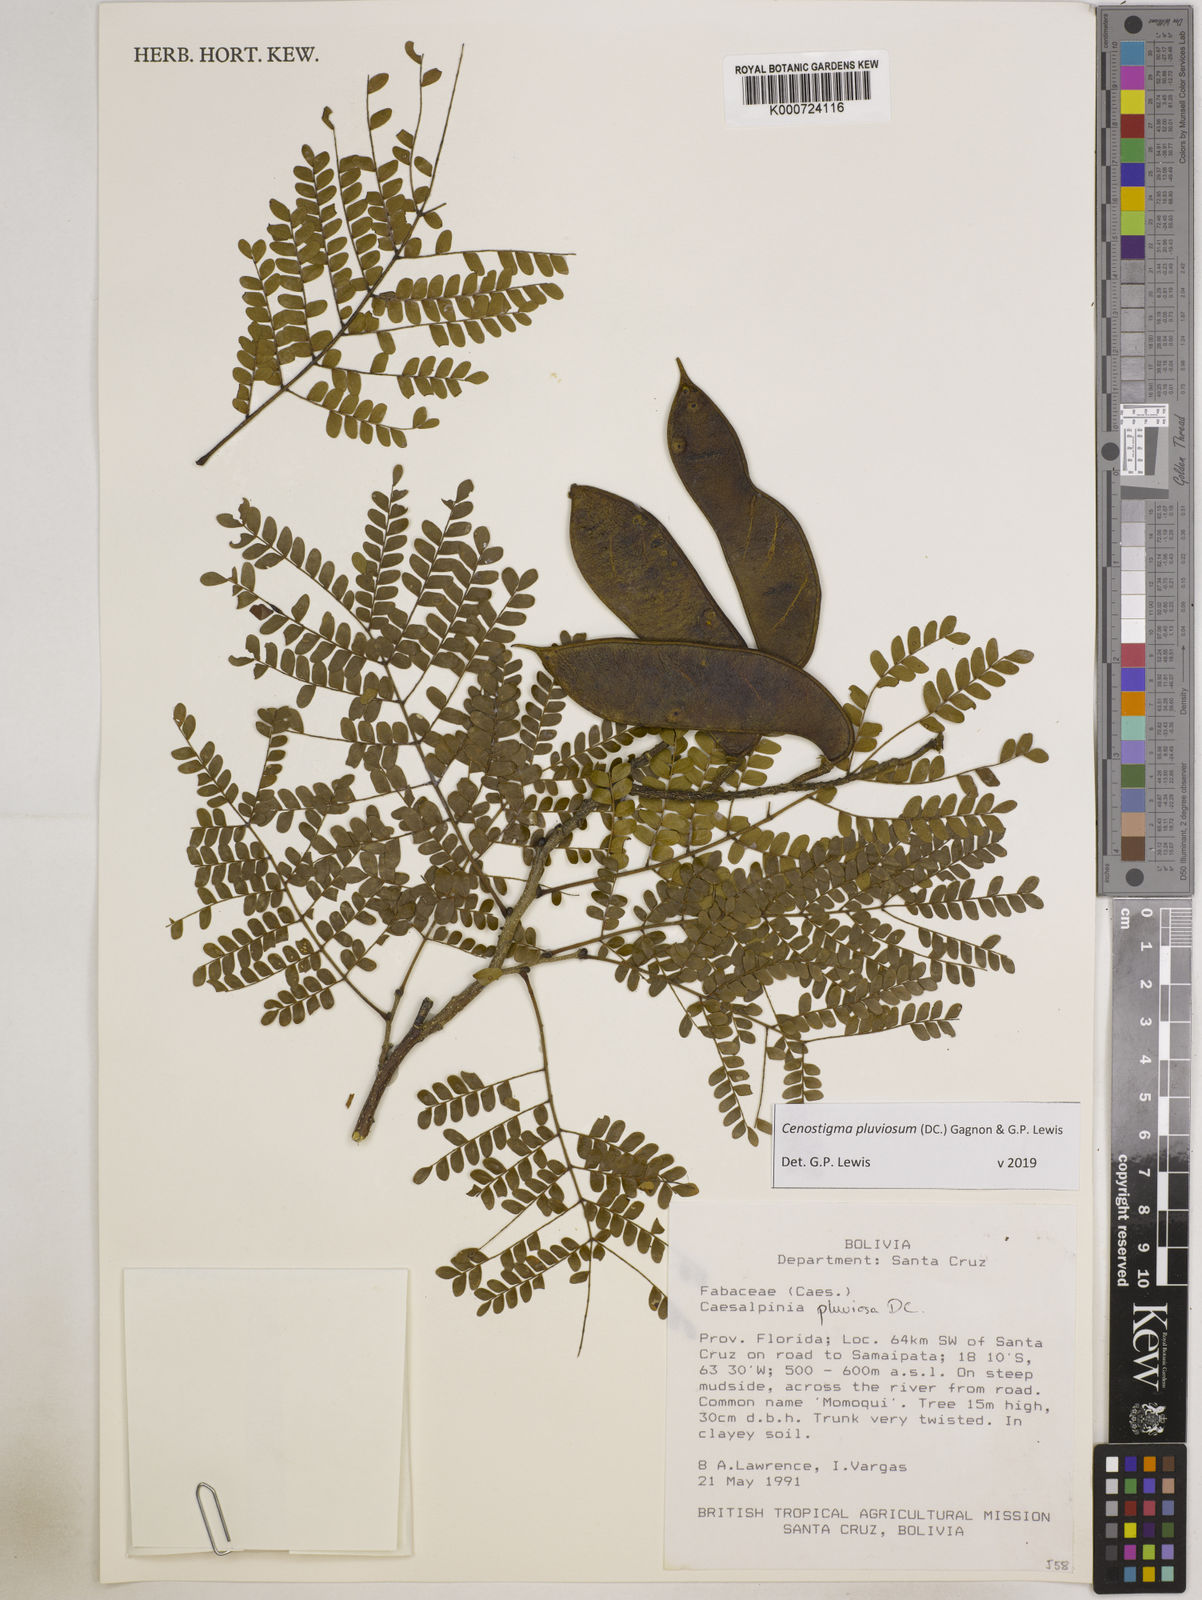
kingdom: Plantae
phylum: Tracheophyta
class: Magnoliopsida
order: Fabales
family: Fabaceae
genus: Cenostigma
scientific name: Cenostigma pluviosum
